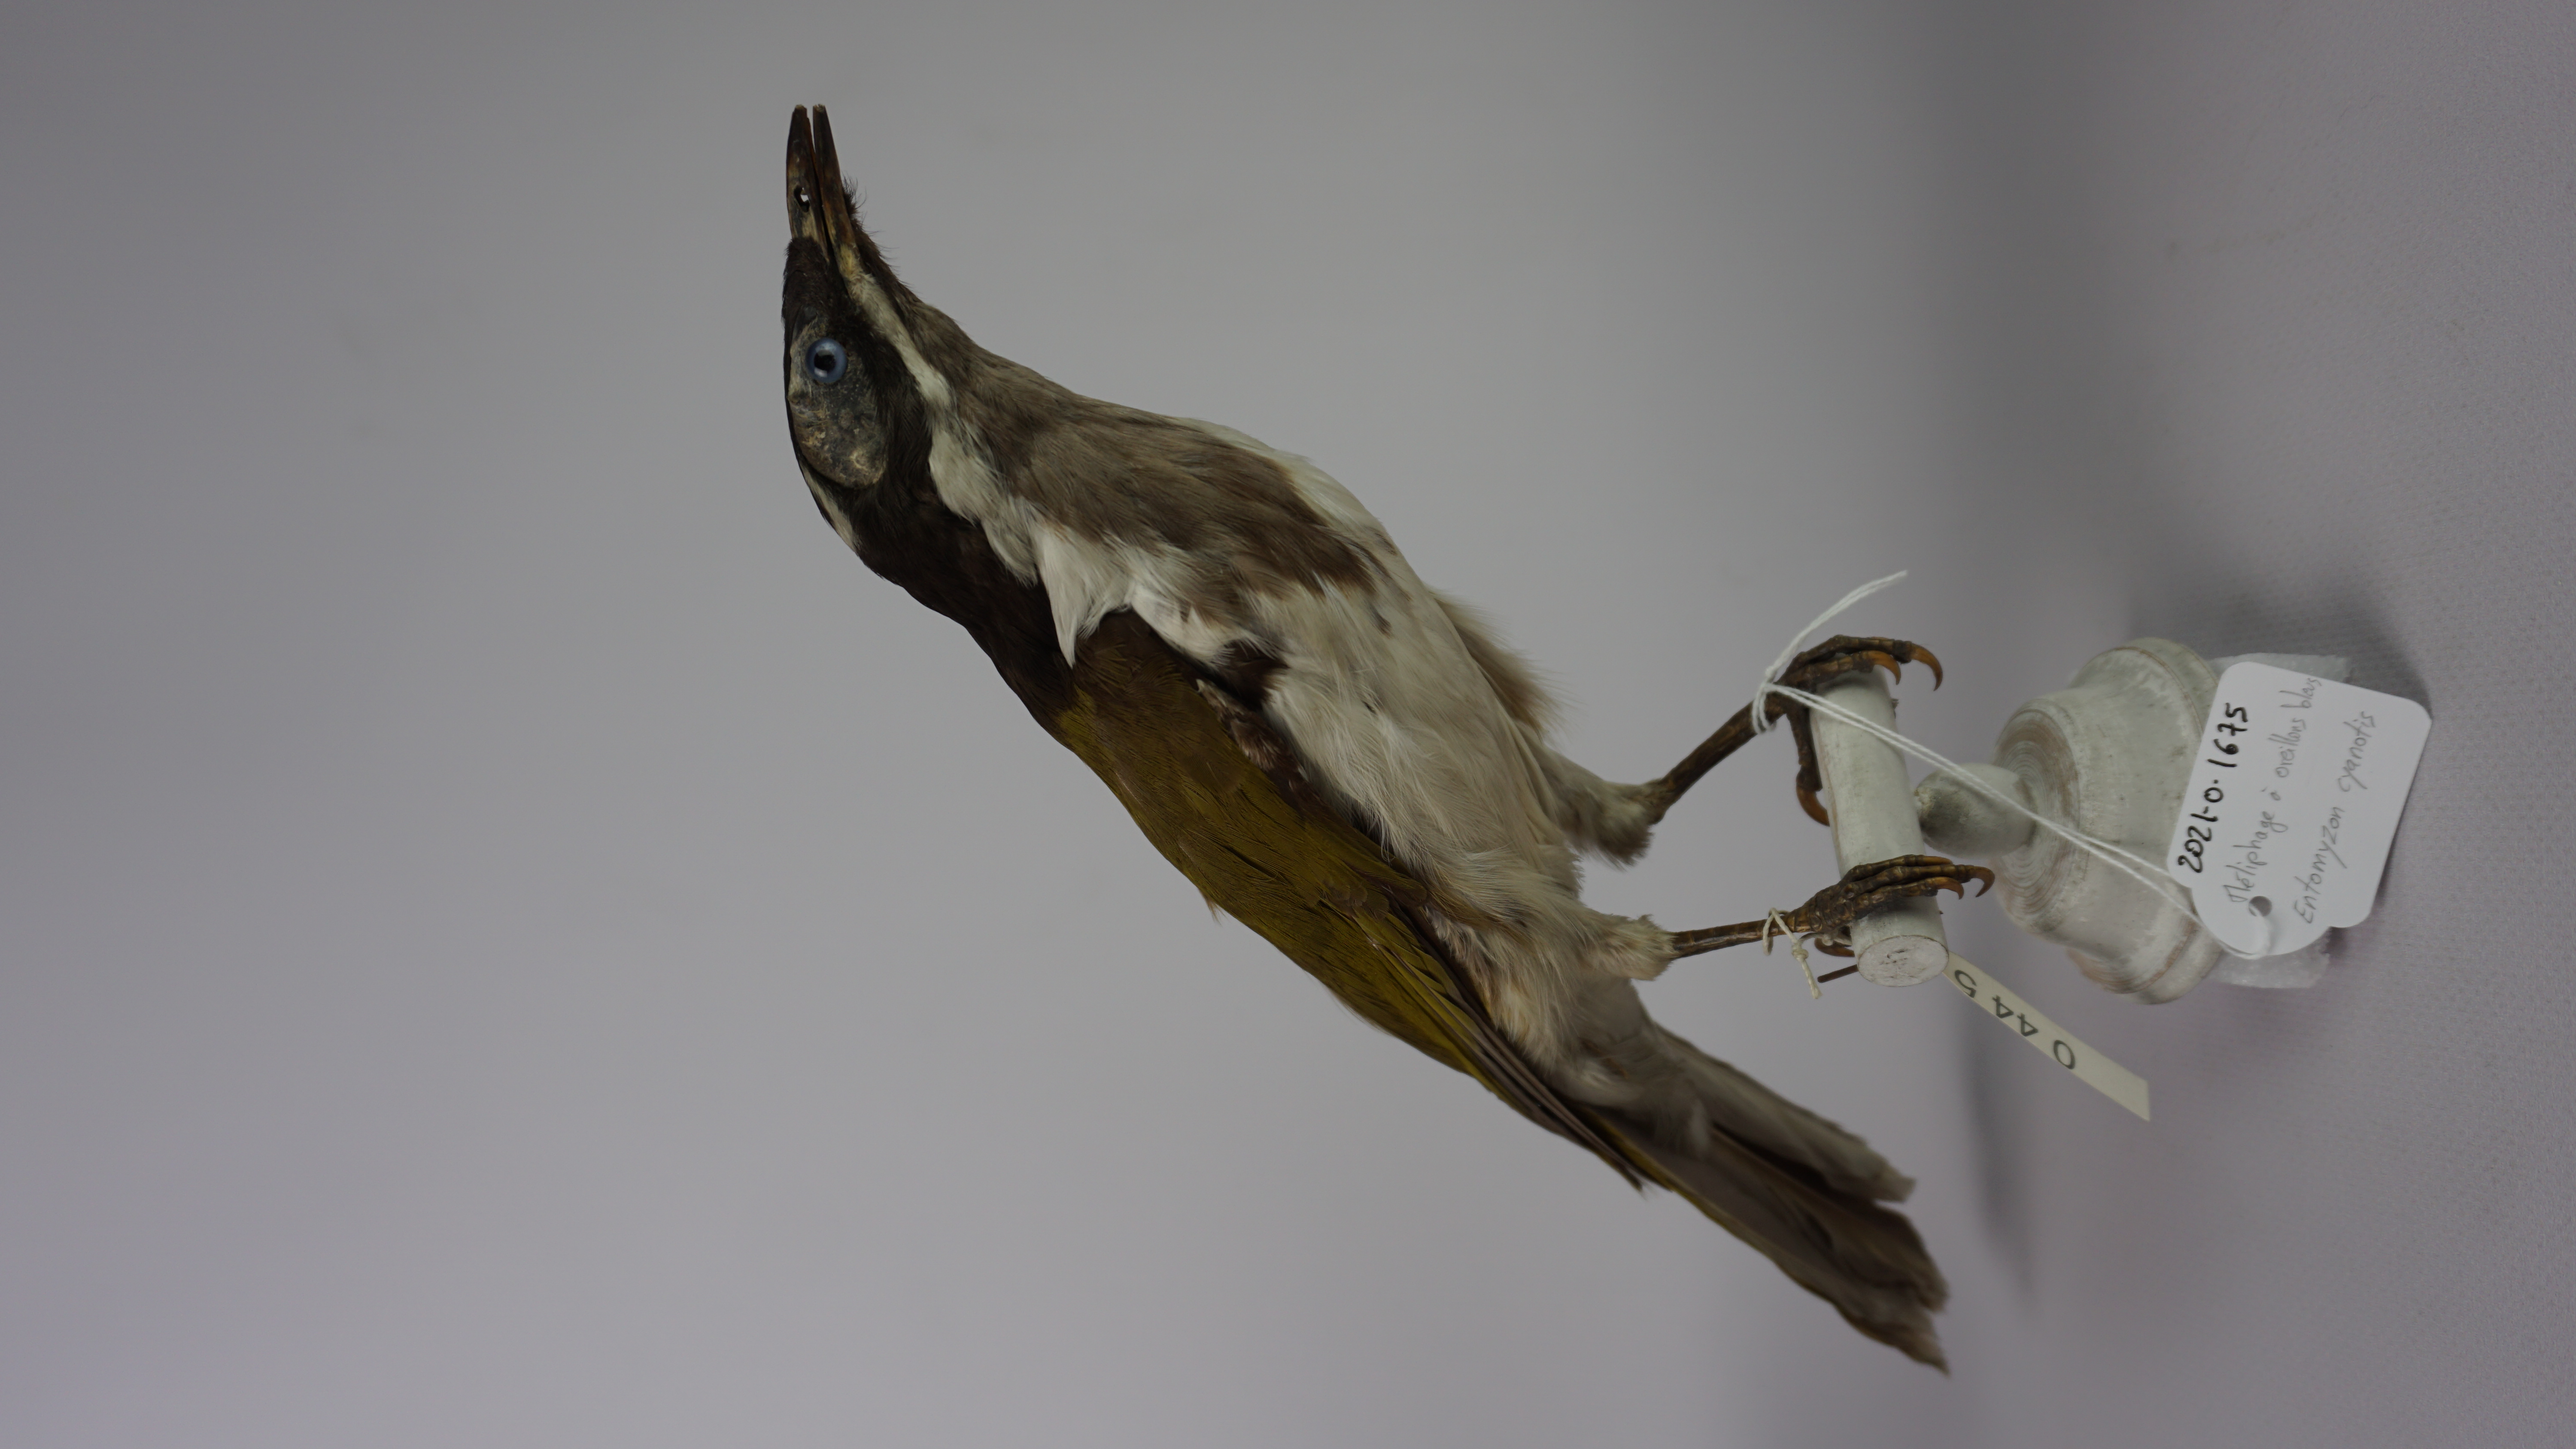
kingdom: Animalia
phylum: Chordata
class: Aves
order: Passeriformes
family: Meliphagidae
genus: Entomyzon
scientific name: Entomyzon cyanotis
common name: Blue-faced honeyeater
